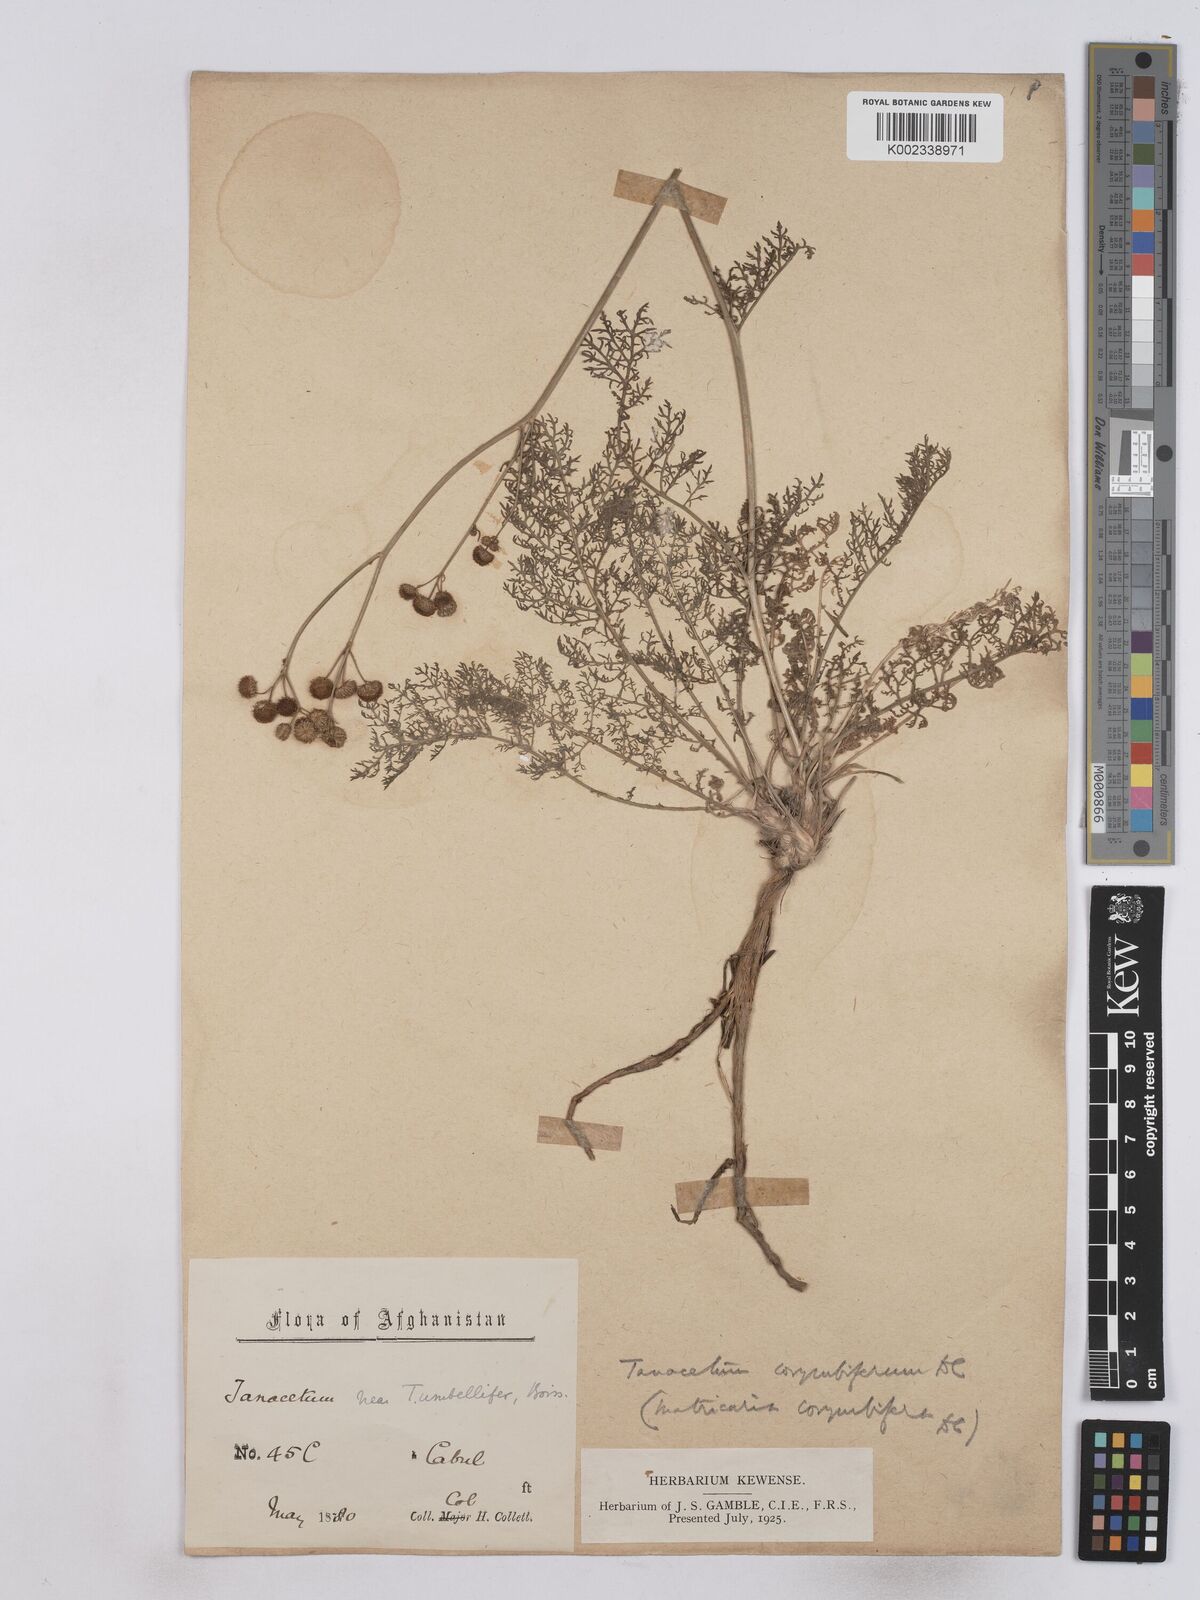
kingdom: Plantae
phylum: Tracheophyta
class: Magnoliopsida
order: Asterales
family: Asteraceae
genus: Tanacetum
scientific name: Tanacetum corymbosum
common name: Scentless feverfew
